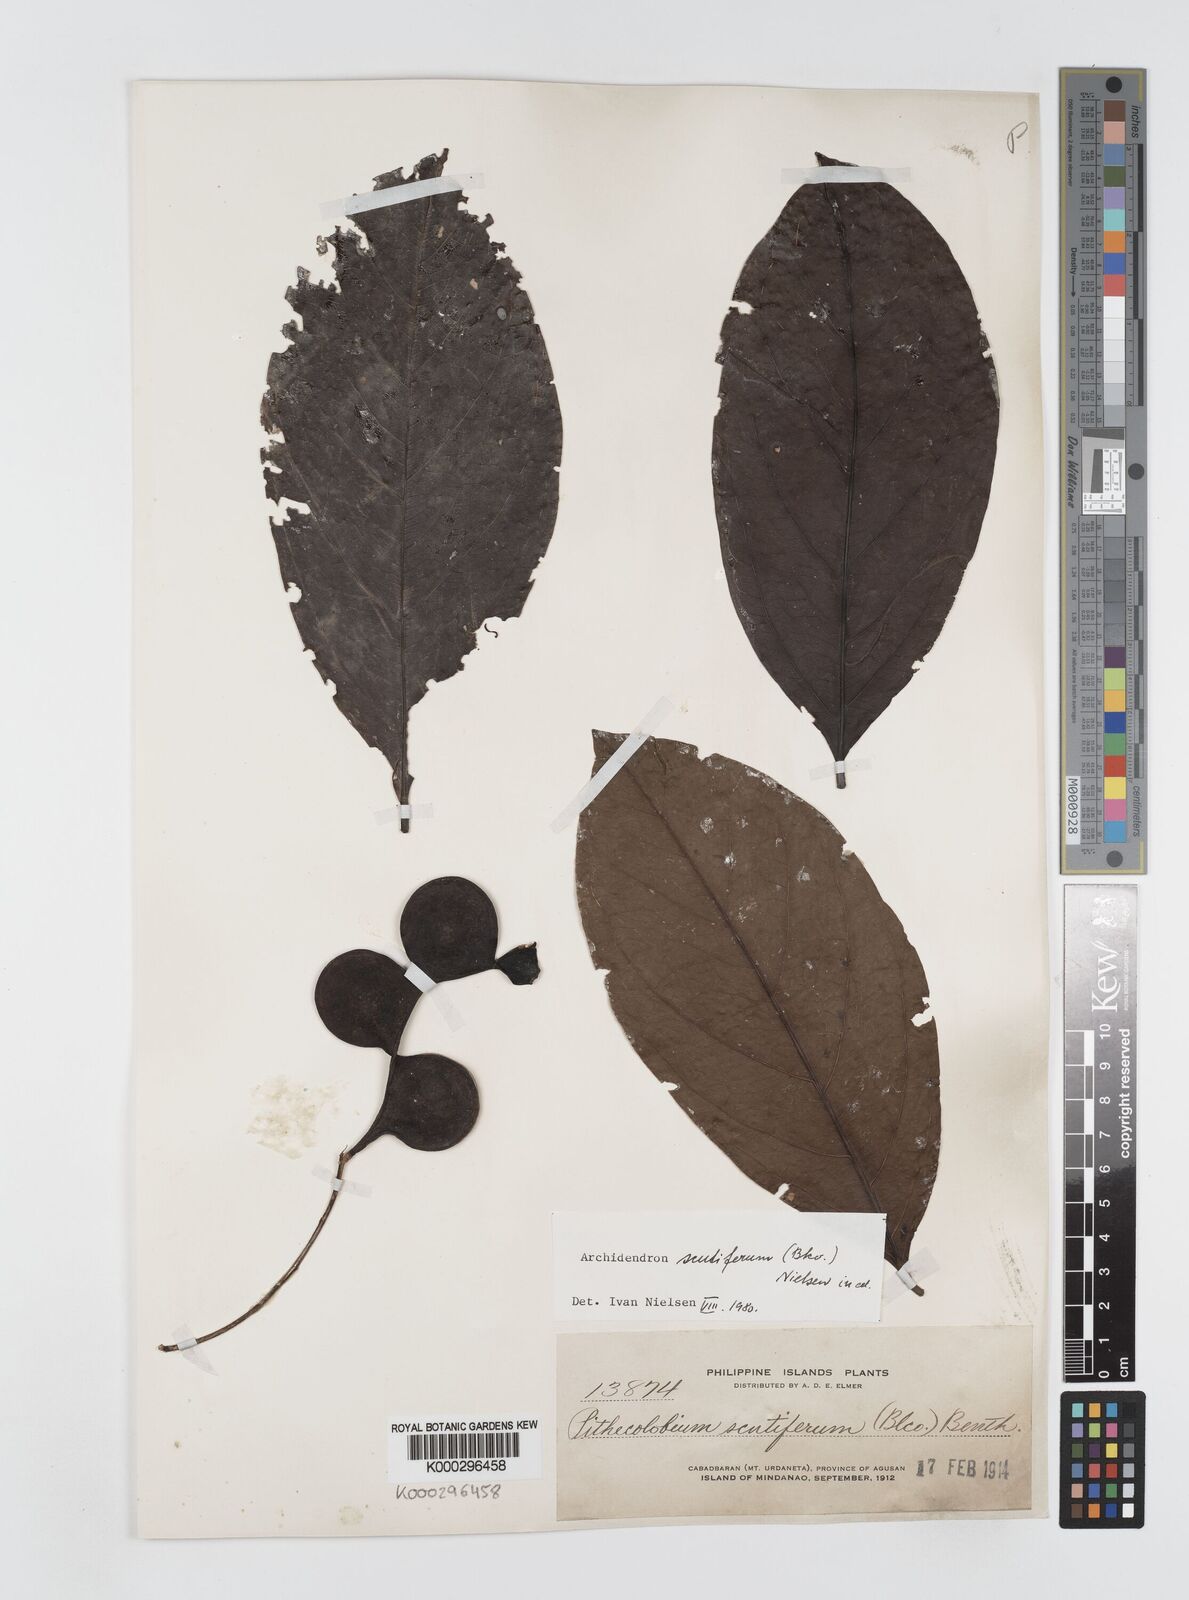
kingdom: Plantae
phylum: Tracheophyta
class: Magnoliopsida
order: Fabales
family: Fabaceae
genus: Archidendron
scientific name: Archidendron scutiferum
